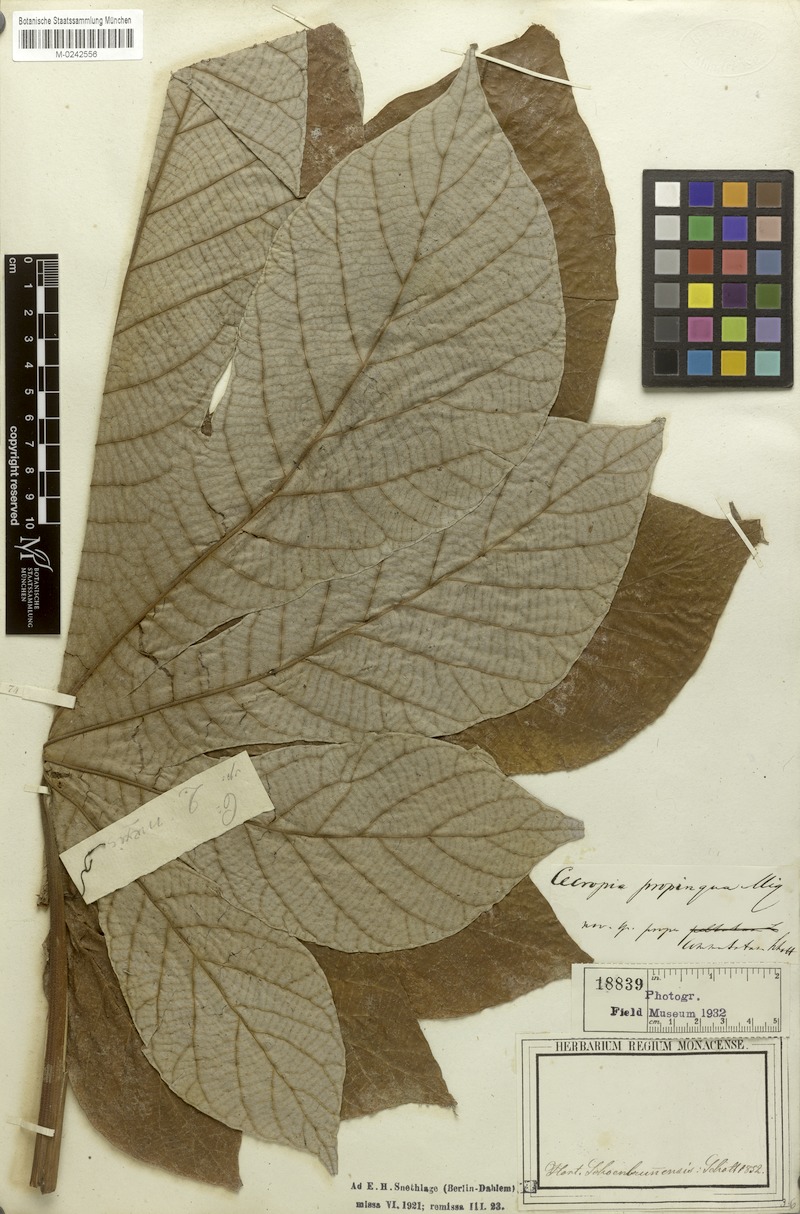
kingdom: Plantae
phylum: Tracheophyta
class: Magnoliopsida
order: Rosales
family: Urticaceae
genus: Cecropia
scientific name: Cecropia peltata
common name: Trumpet-tree
